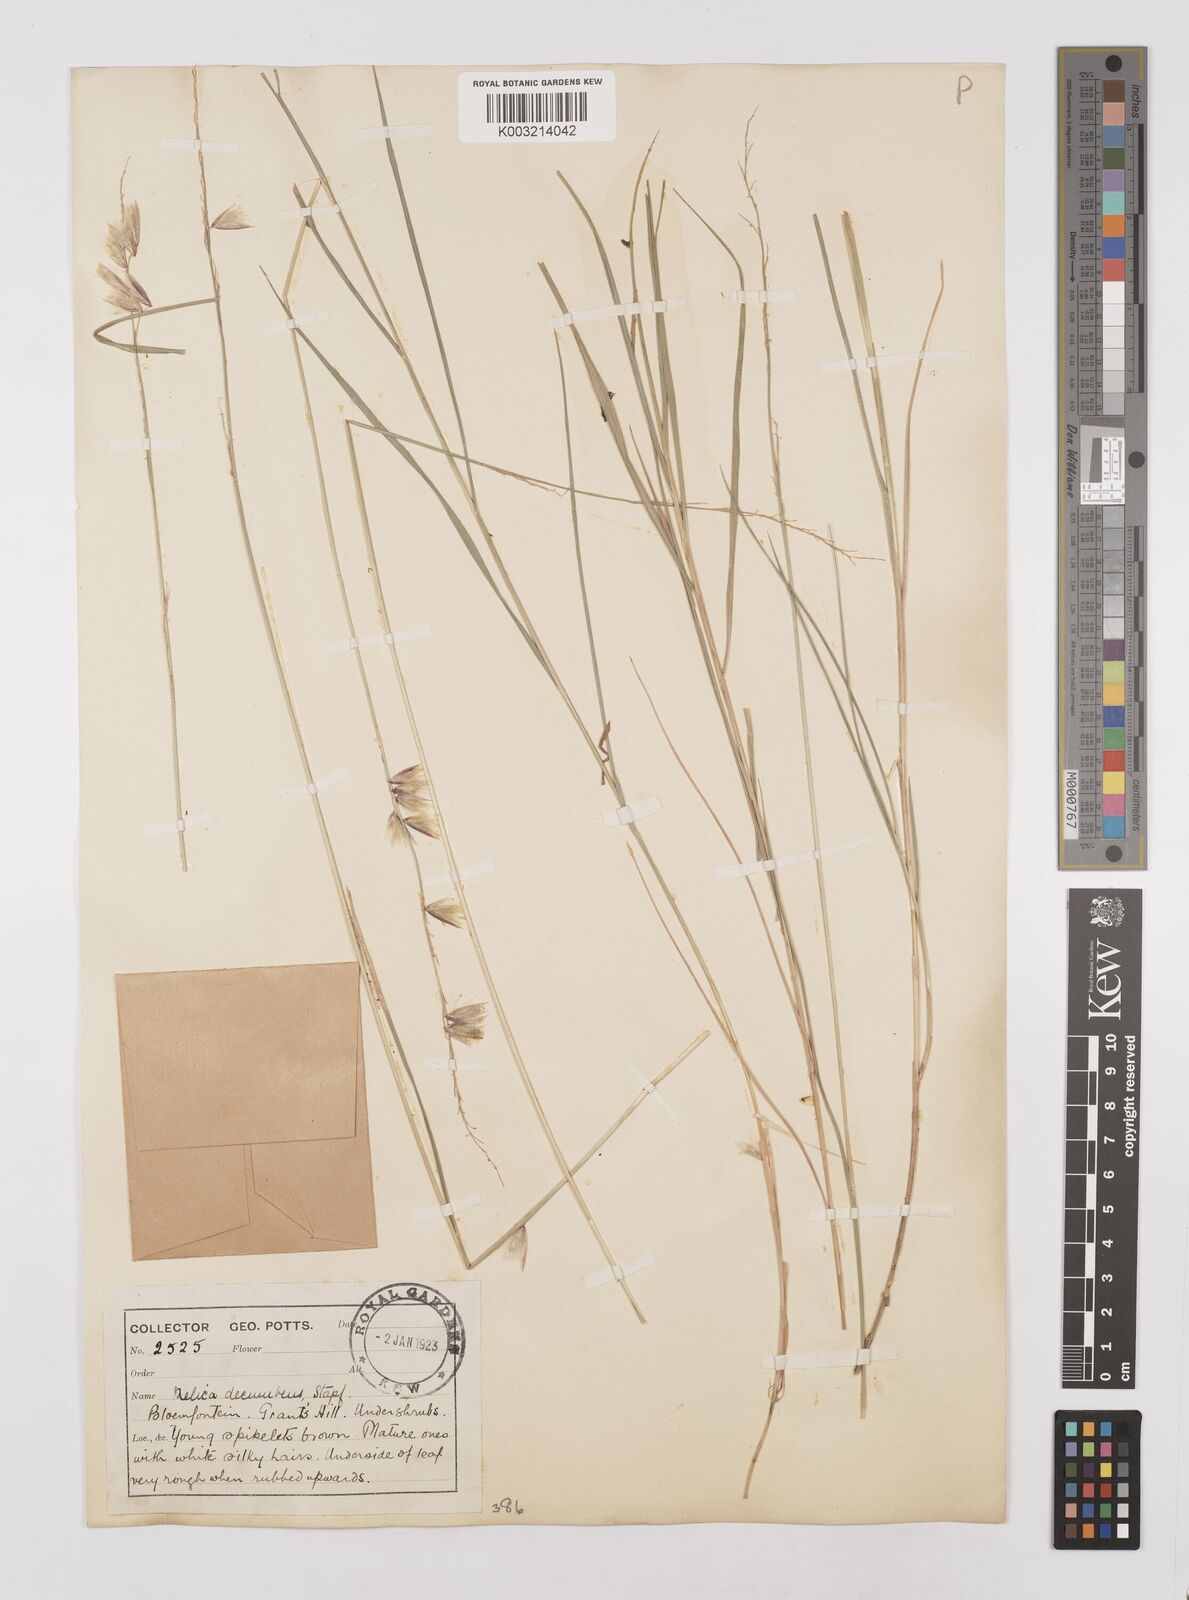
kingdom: Plantae
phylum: Tracheophyta
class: Liliopsida
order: Poales
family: Poaceae
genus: Melica
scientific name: Melica dendroides
